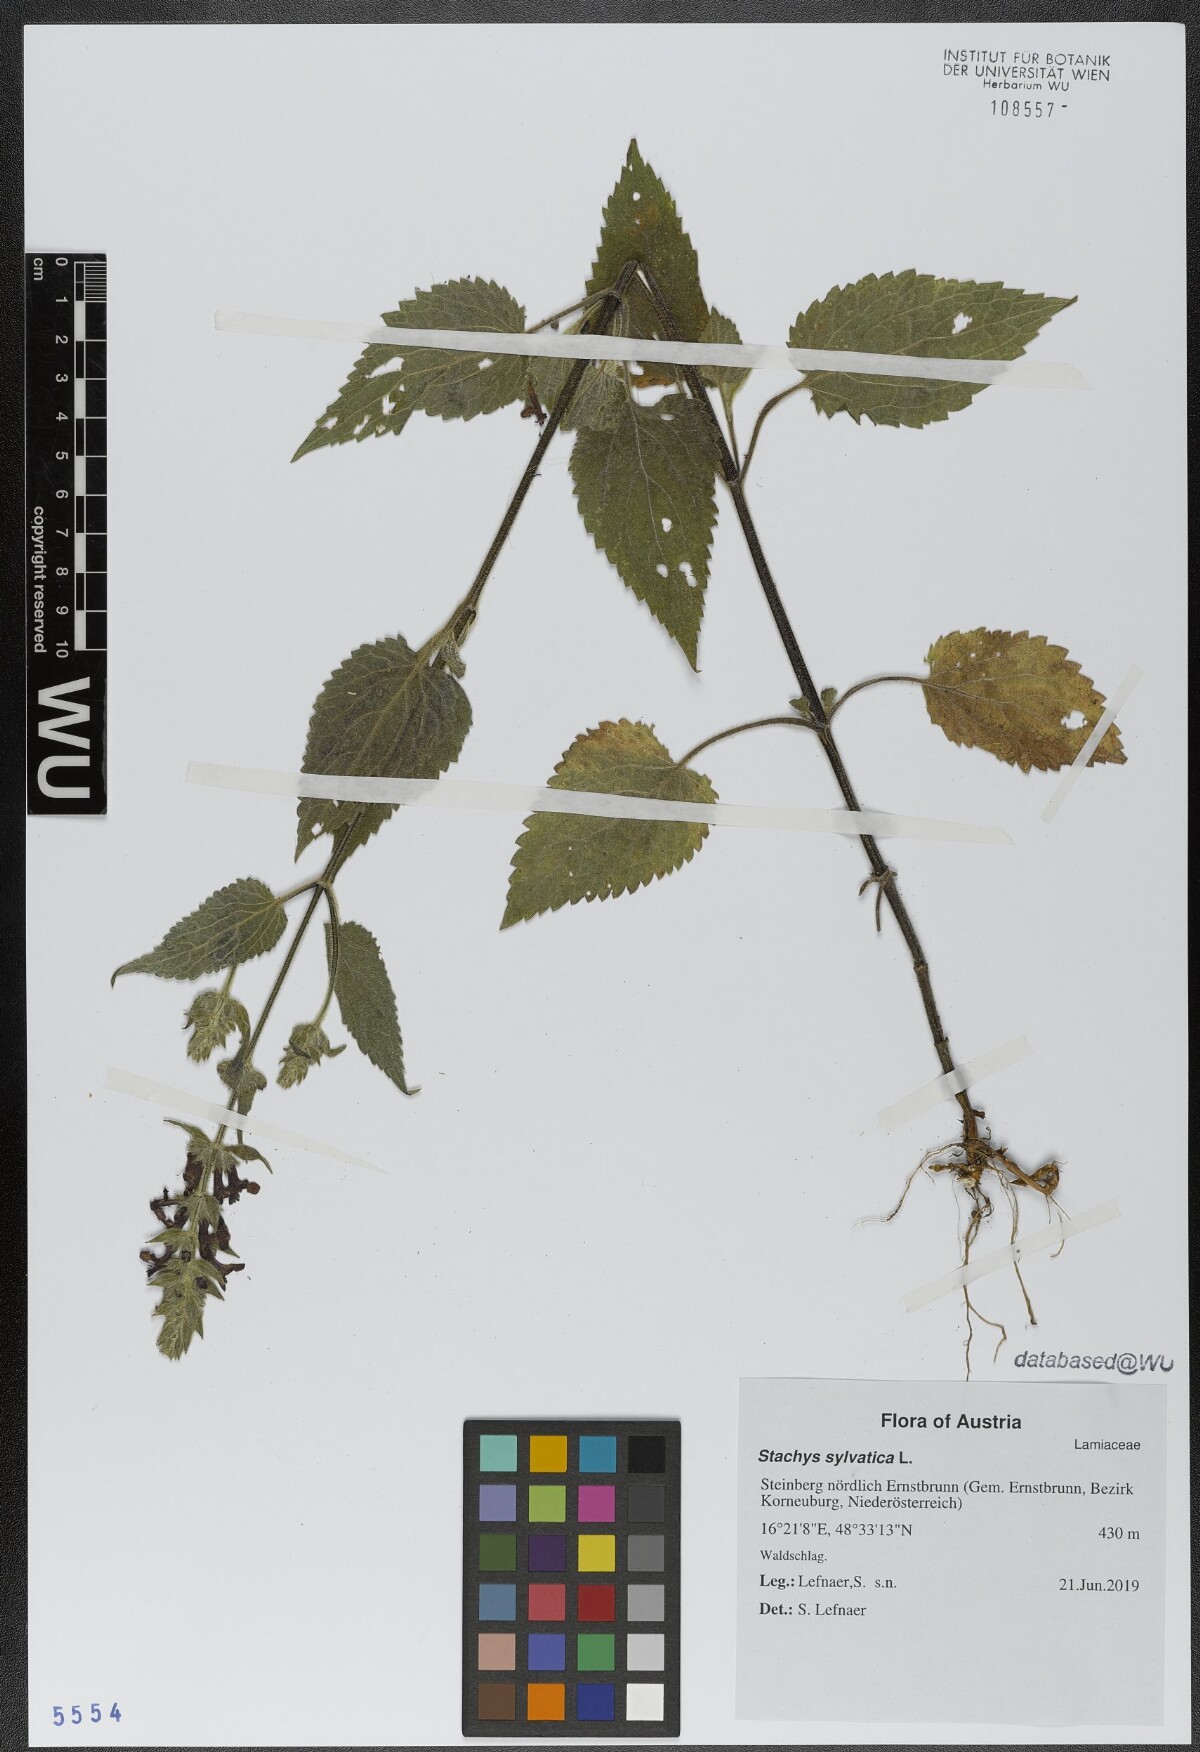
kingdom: Plantae
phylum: Tracheophyta
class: Magnoliopsida
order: Lamiales
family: Lamiaceae
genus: Stachys
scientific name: Stachys sylvatica
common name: Hedge woundwort
